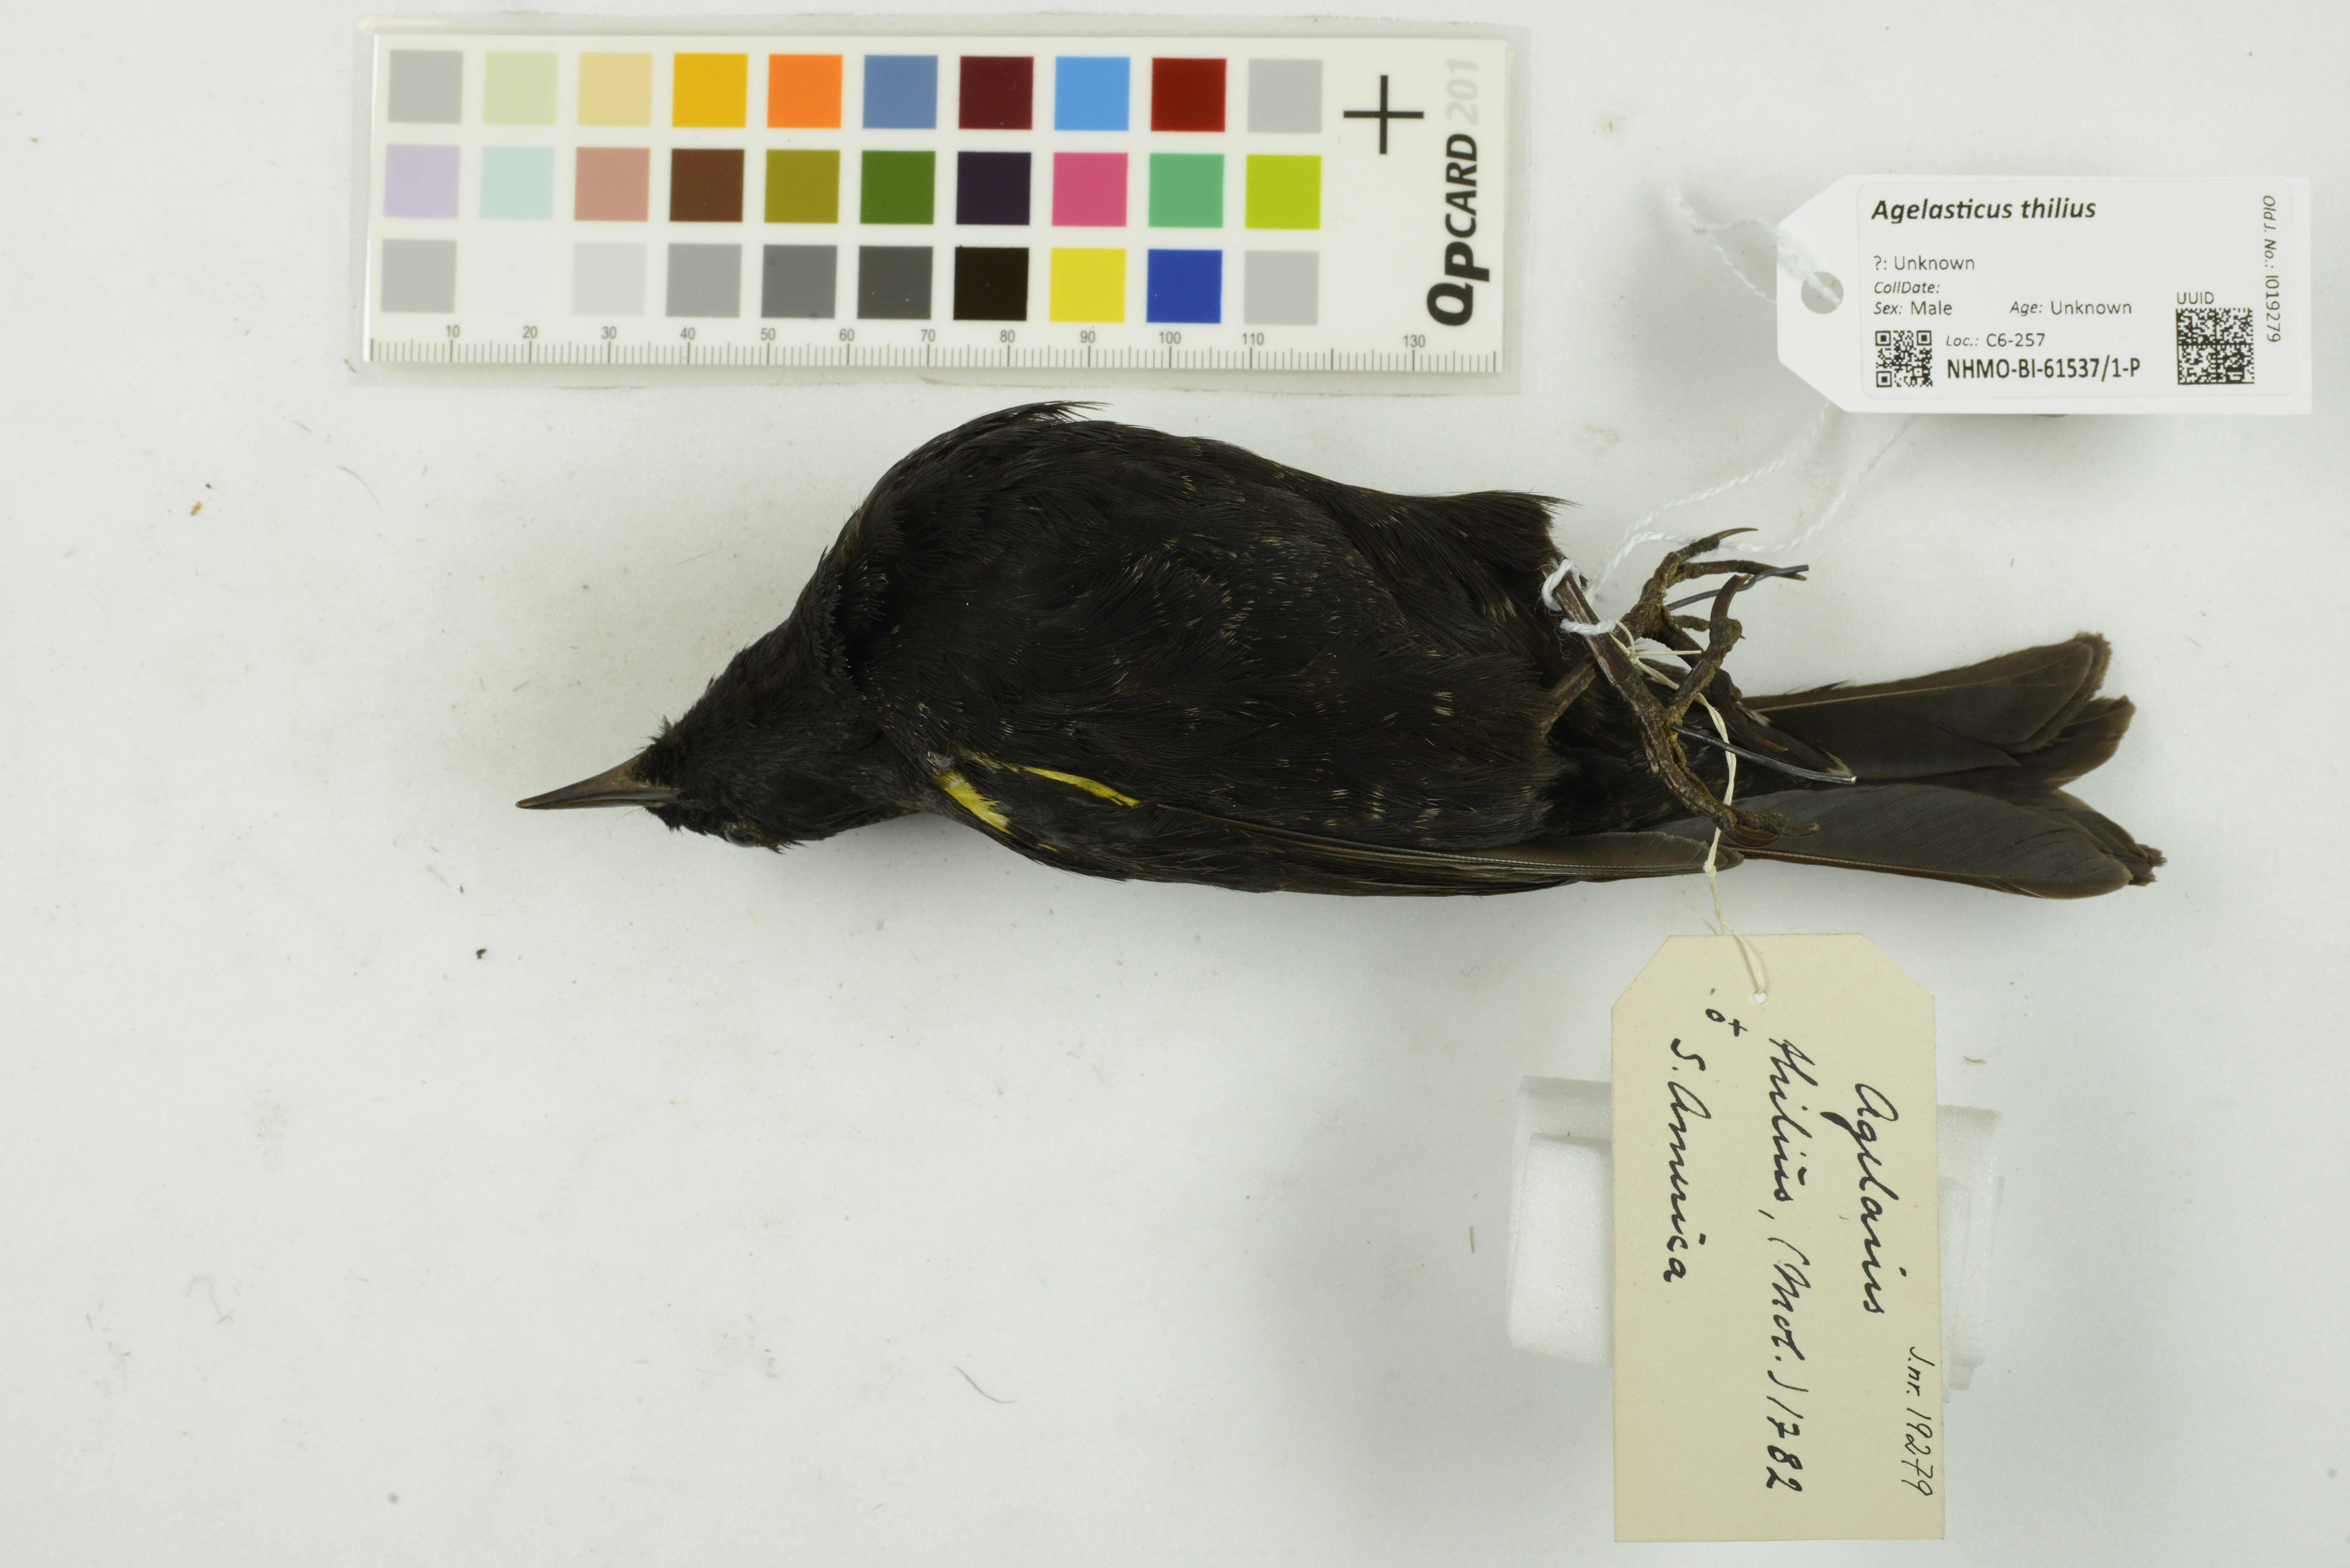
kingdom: Animalia
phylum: Chordata
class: Aves
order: Passeriformes
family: Icteridae
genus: Agelasticus
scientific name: Agelasticus thilius
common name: Yellow-winged blackbird
